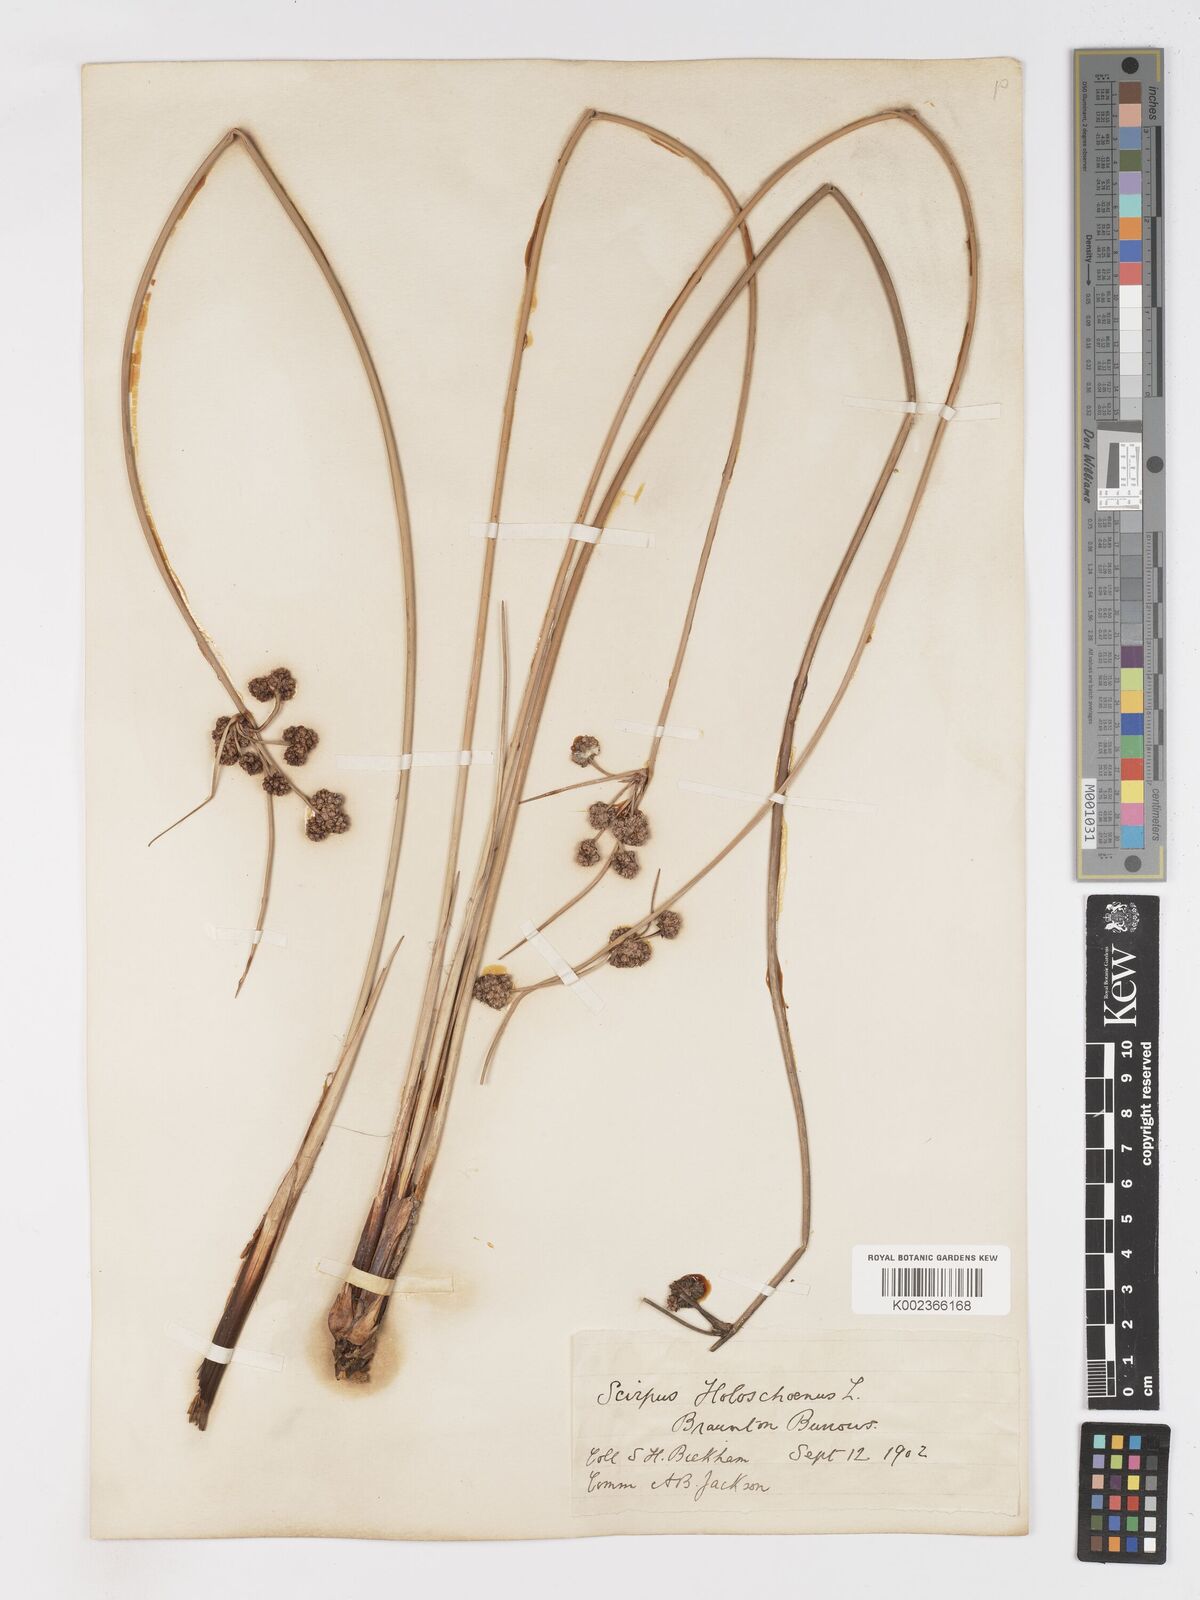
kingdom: Plantae
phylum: Tracheophyta
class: Liliopsida
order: Poales
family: Cyperaceae
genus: Scirpoides
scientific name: Scirpoides holoschoenus
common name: Round-headed club-rush
